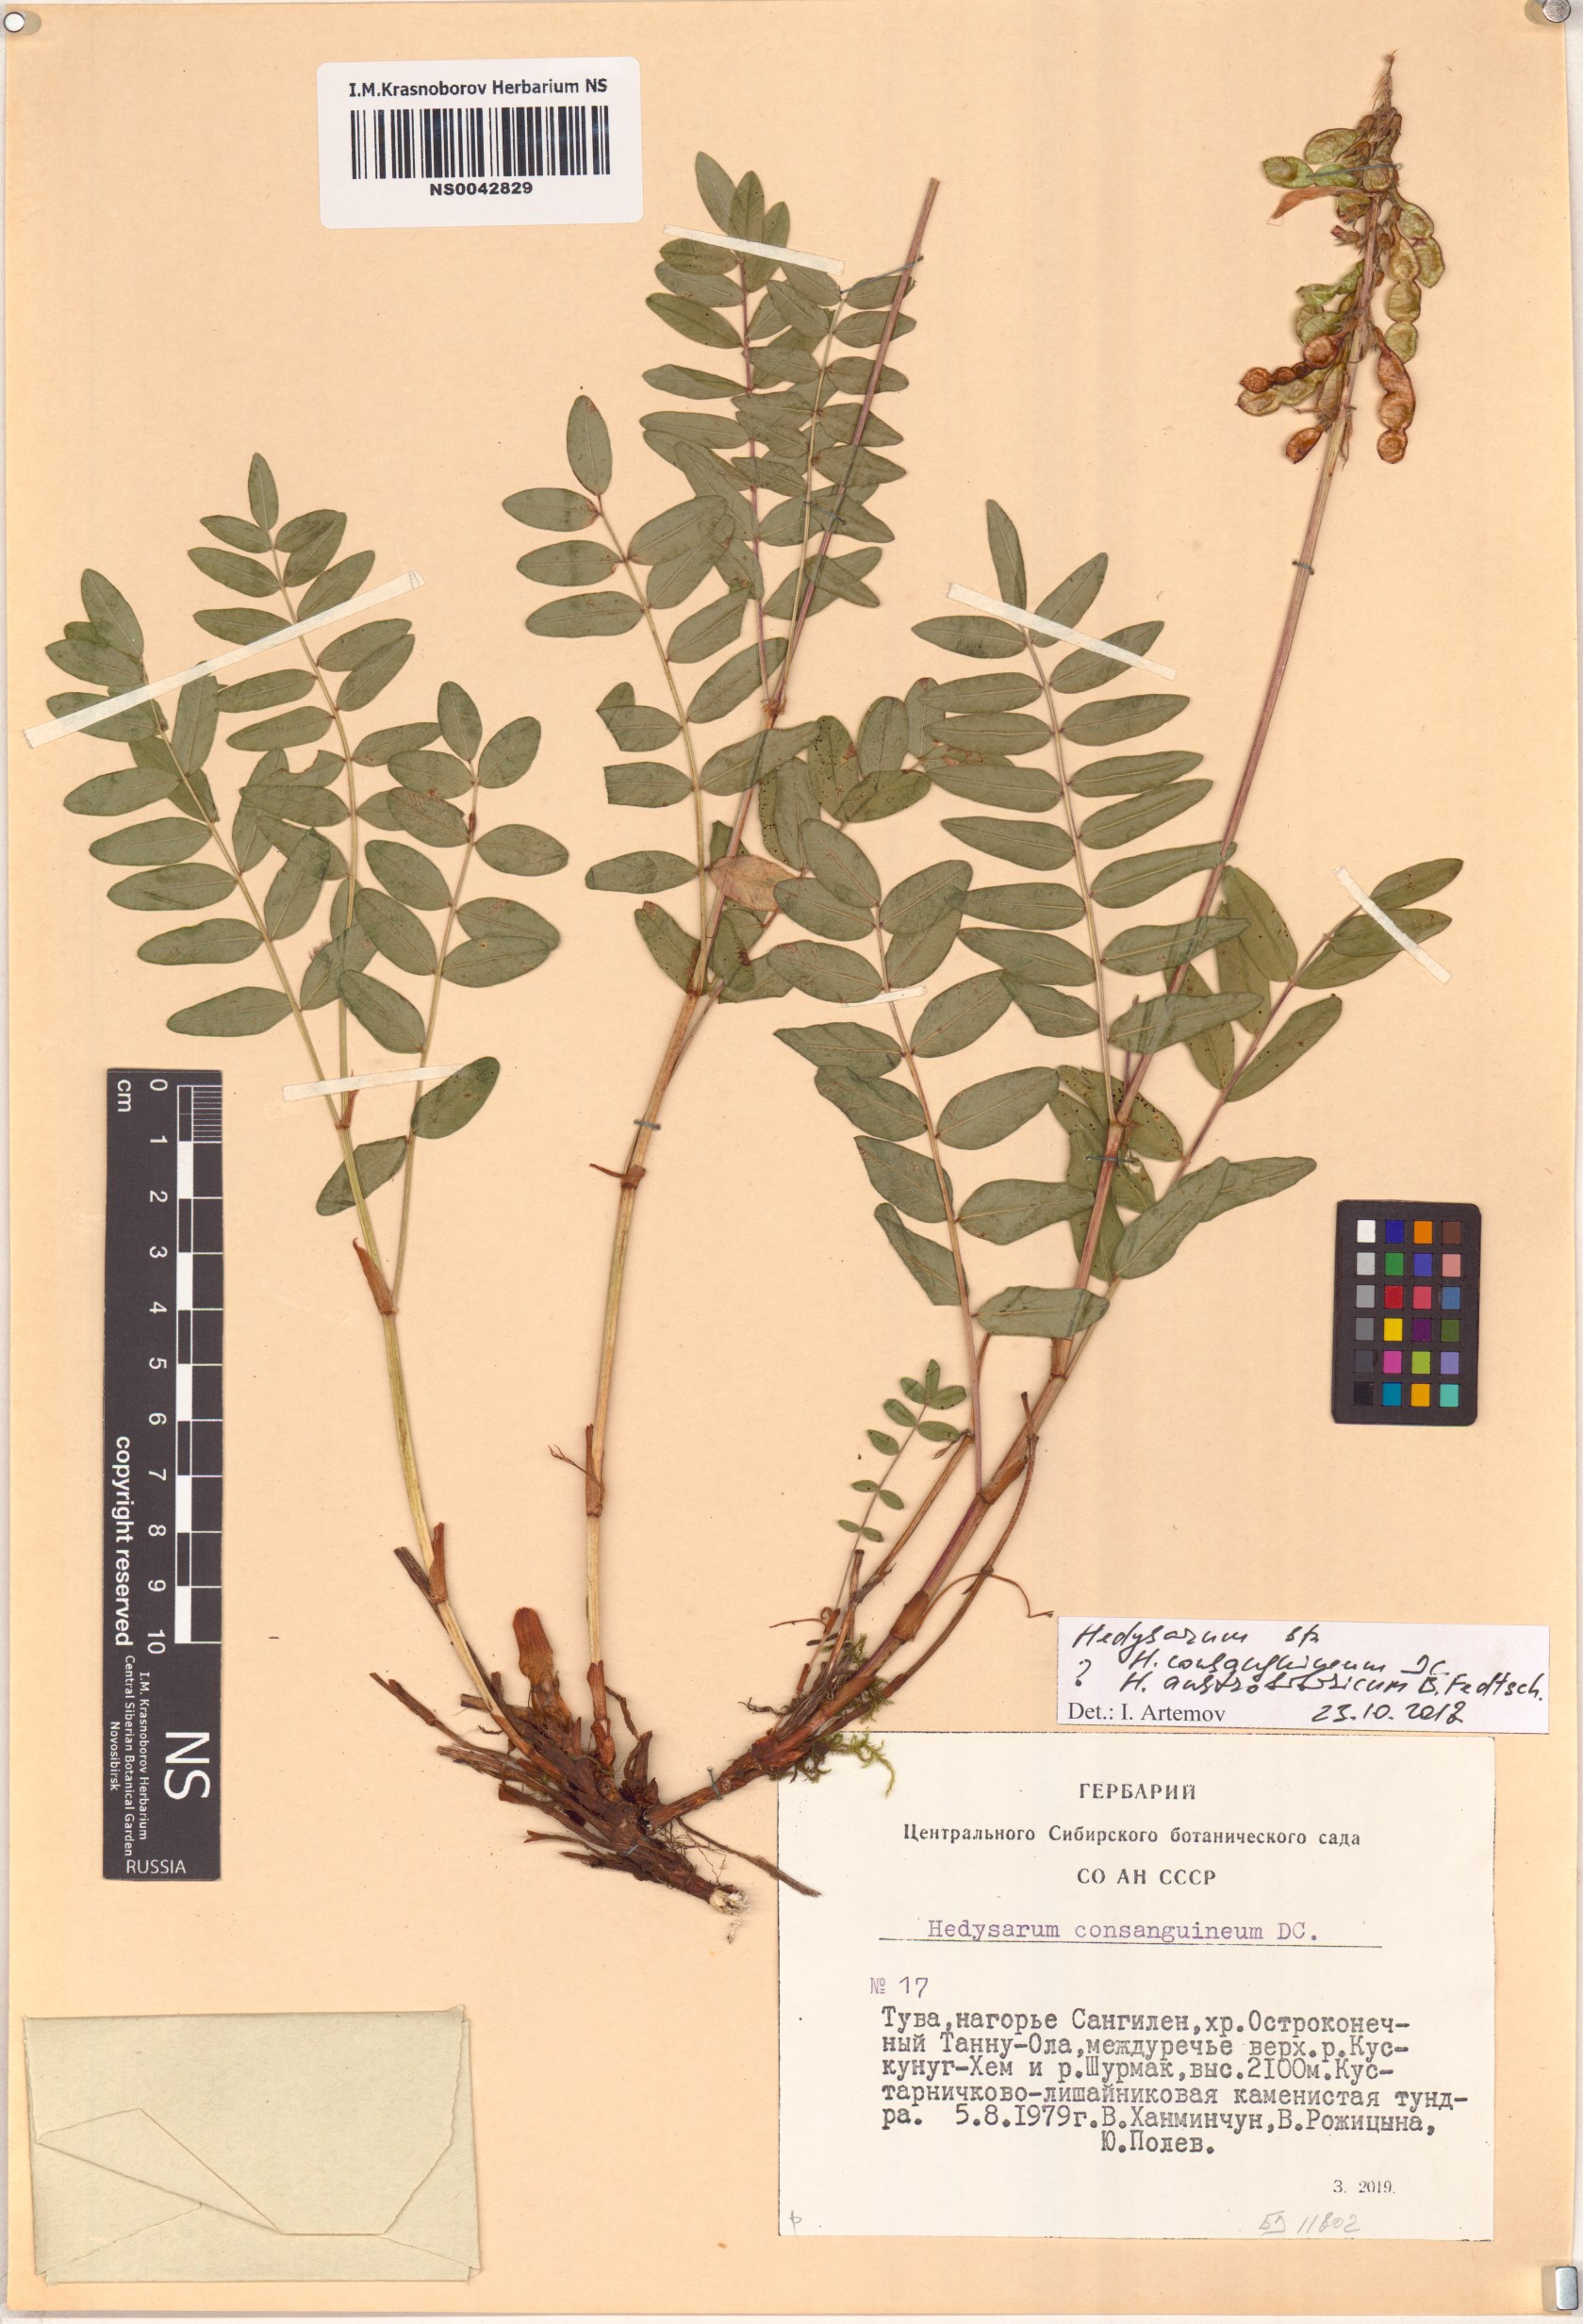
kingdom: Plantae
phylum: Tracheophyta
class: Magnoliopsida
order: Fabales
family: Fabaceae
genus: Hedysarum
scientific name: Hedysarum consanguineum
